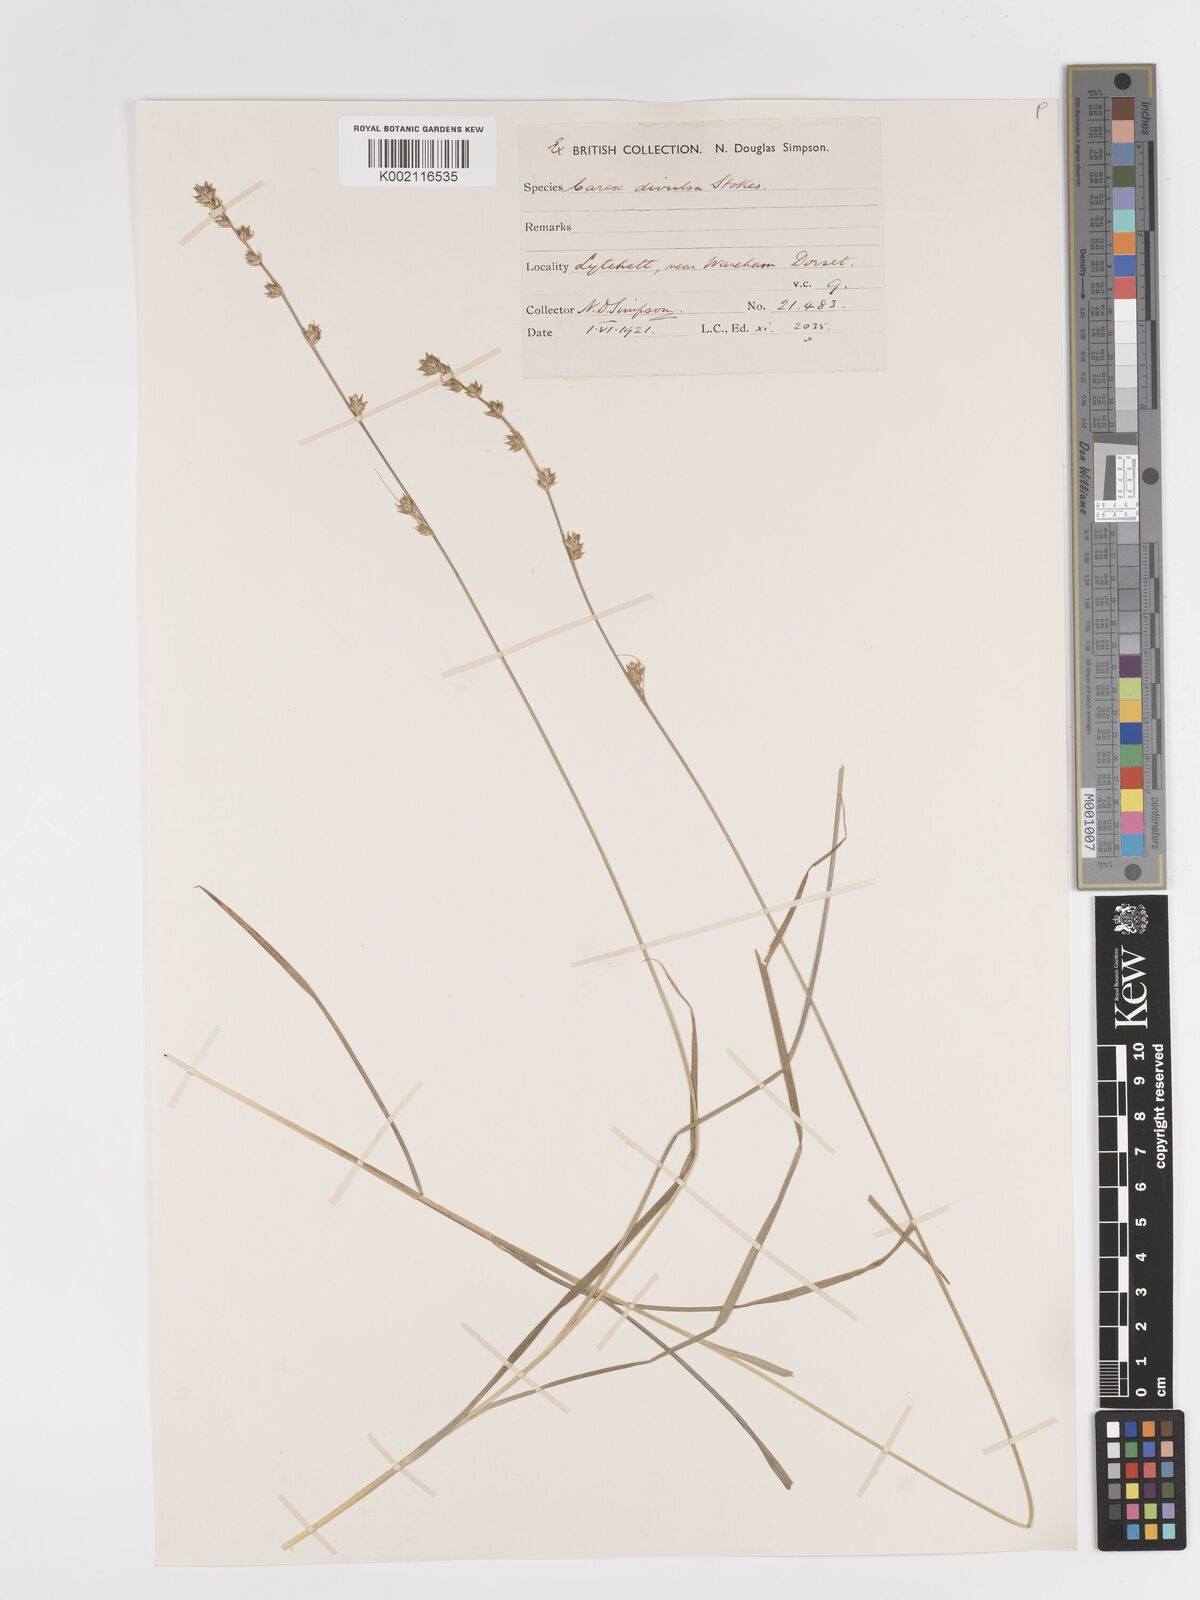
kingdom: Plantae
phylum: Tracheophyta
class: Liliopsida
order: Poales
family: Cyperaceae
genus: Carex
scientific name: Carex divulsa
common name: Grassland sedge
